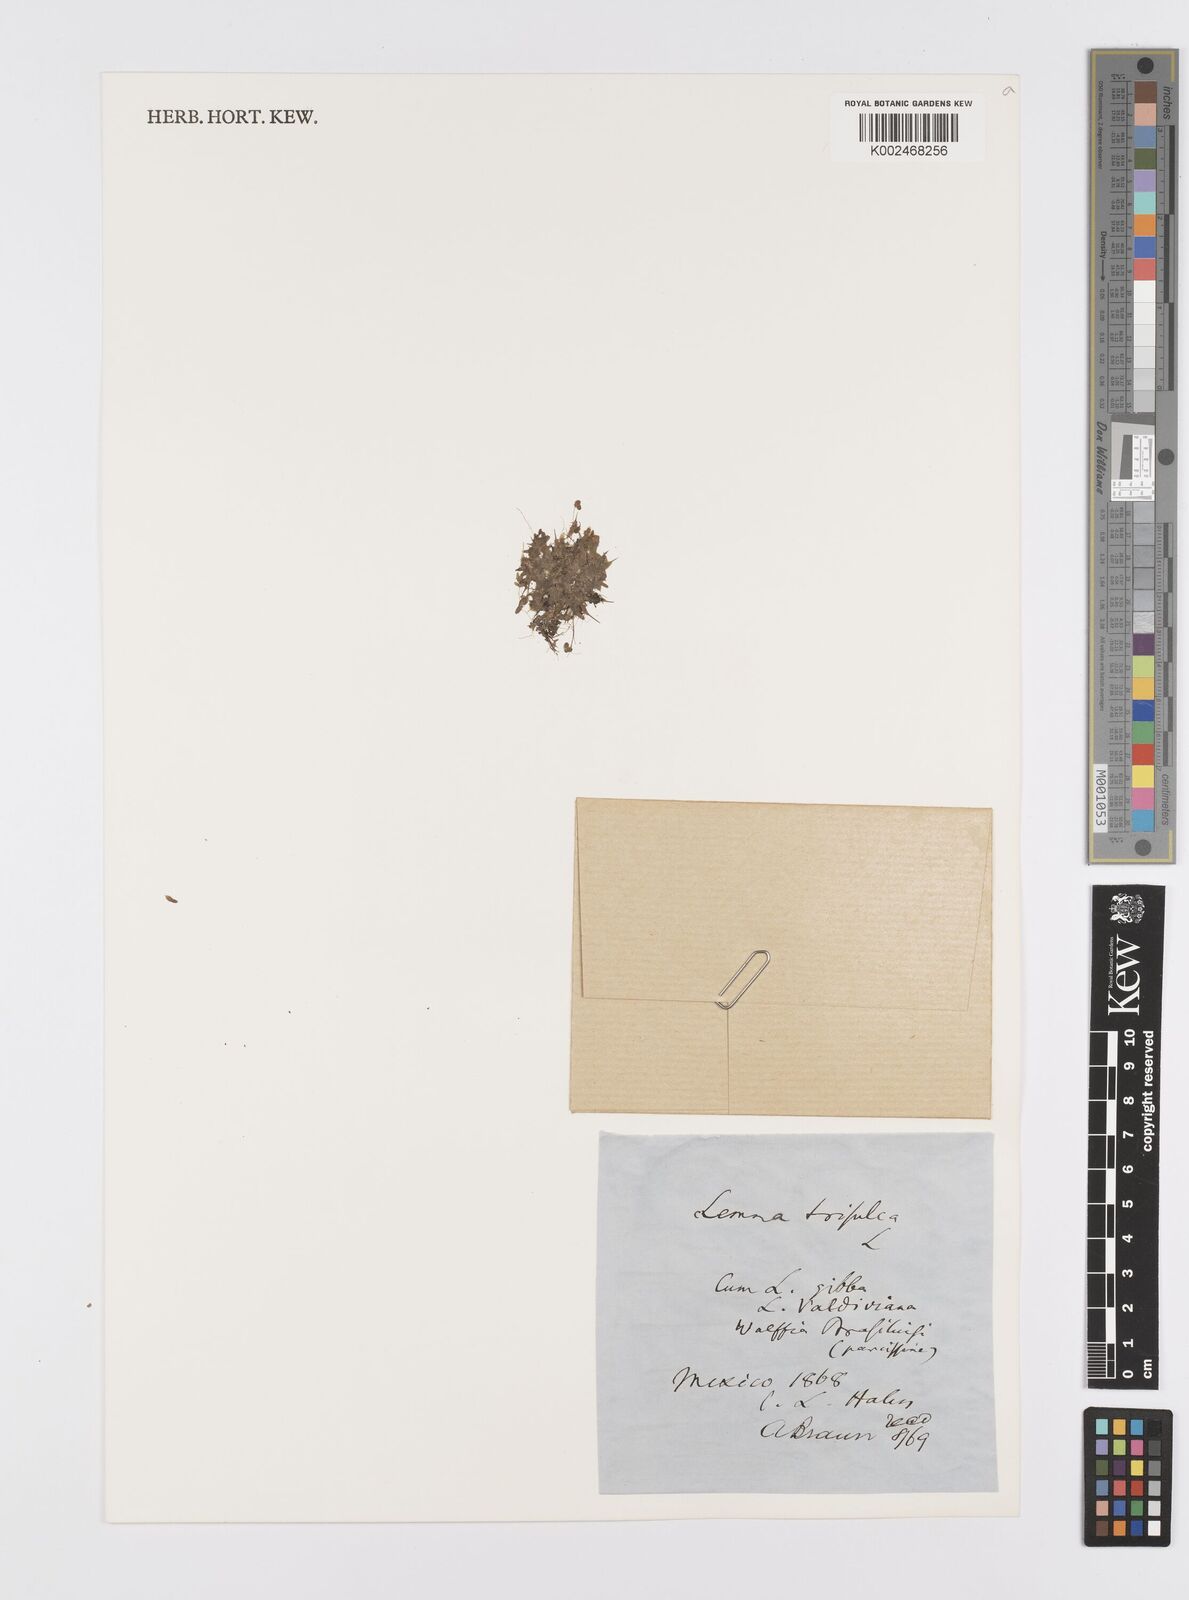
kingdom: Plantae
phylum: Tracheophyta
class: Liliopsida
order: Alismatales
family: Araceae
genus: Lemna
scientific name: Lemna trisulca
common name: Ivy-leaved duckweed
